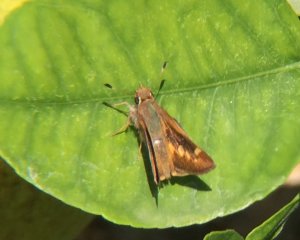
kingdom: Animalia
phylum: Arthropoda
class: Insecta
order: Lepidoptera
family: Hesperiidae
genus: Lon
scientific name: Lon melane
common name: Umber Skipper
